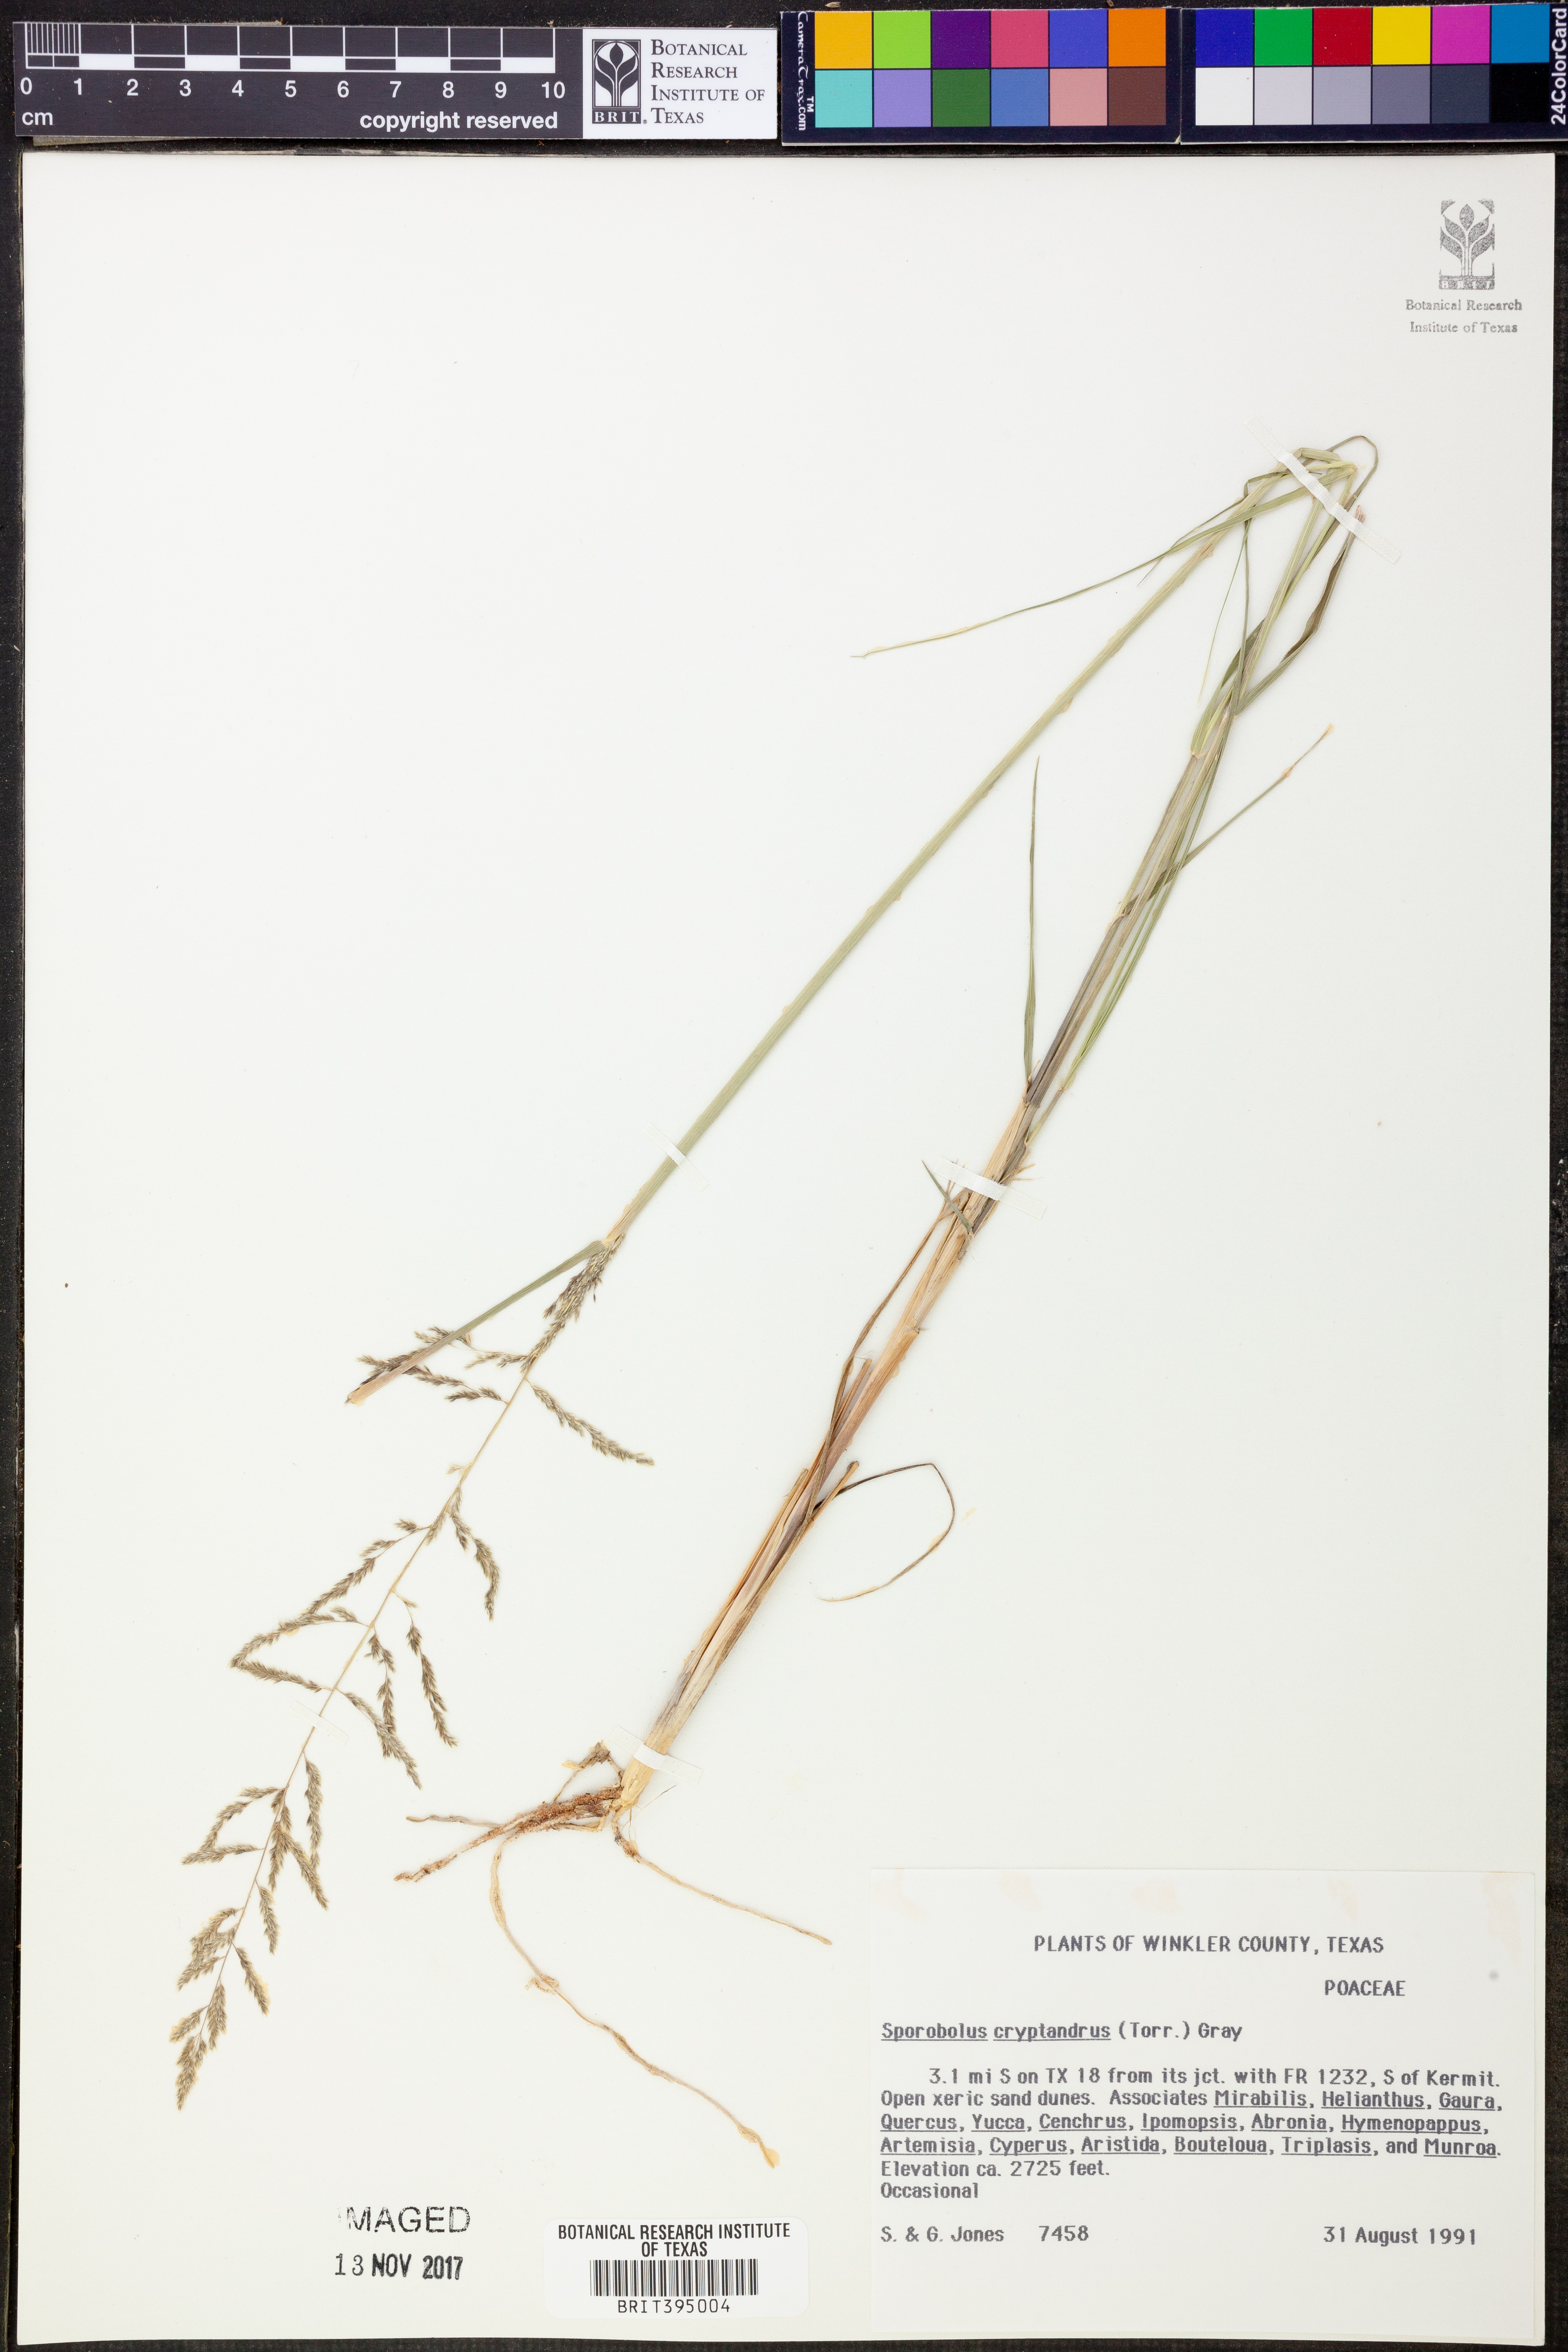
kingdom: Plantae
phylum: Tracheophyta
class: Liliopsida
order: Poales
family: Poaceae
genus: Sporobolus
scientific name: Sporobolus cryptandrus
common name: Sand dropseed
